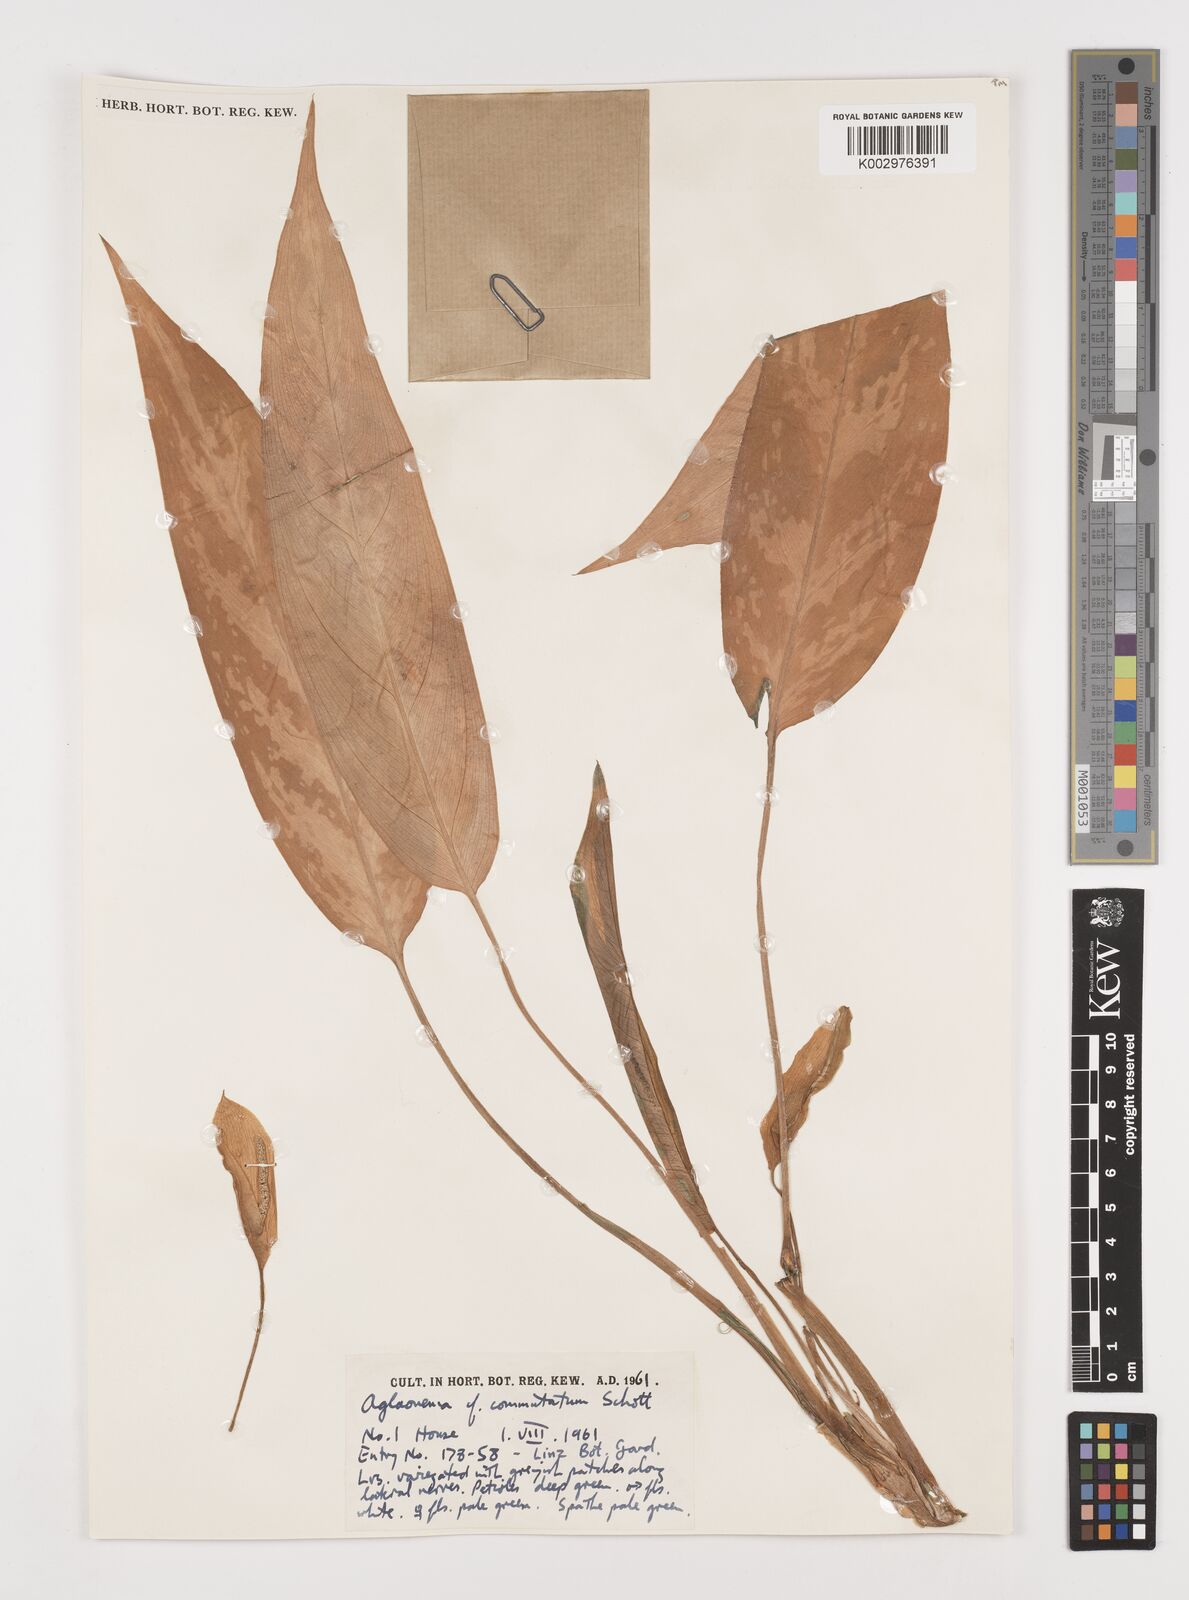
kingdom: Plantae
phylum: Tracheophyta
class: Liliopsida
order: Alismatales
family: Araceae
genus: Aglaonema
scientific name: Aglaonema commutatum
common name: Philippine evergreen
